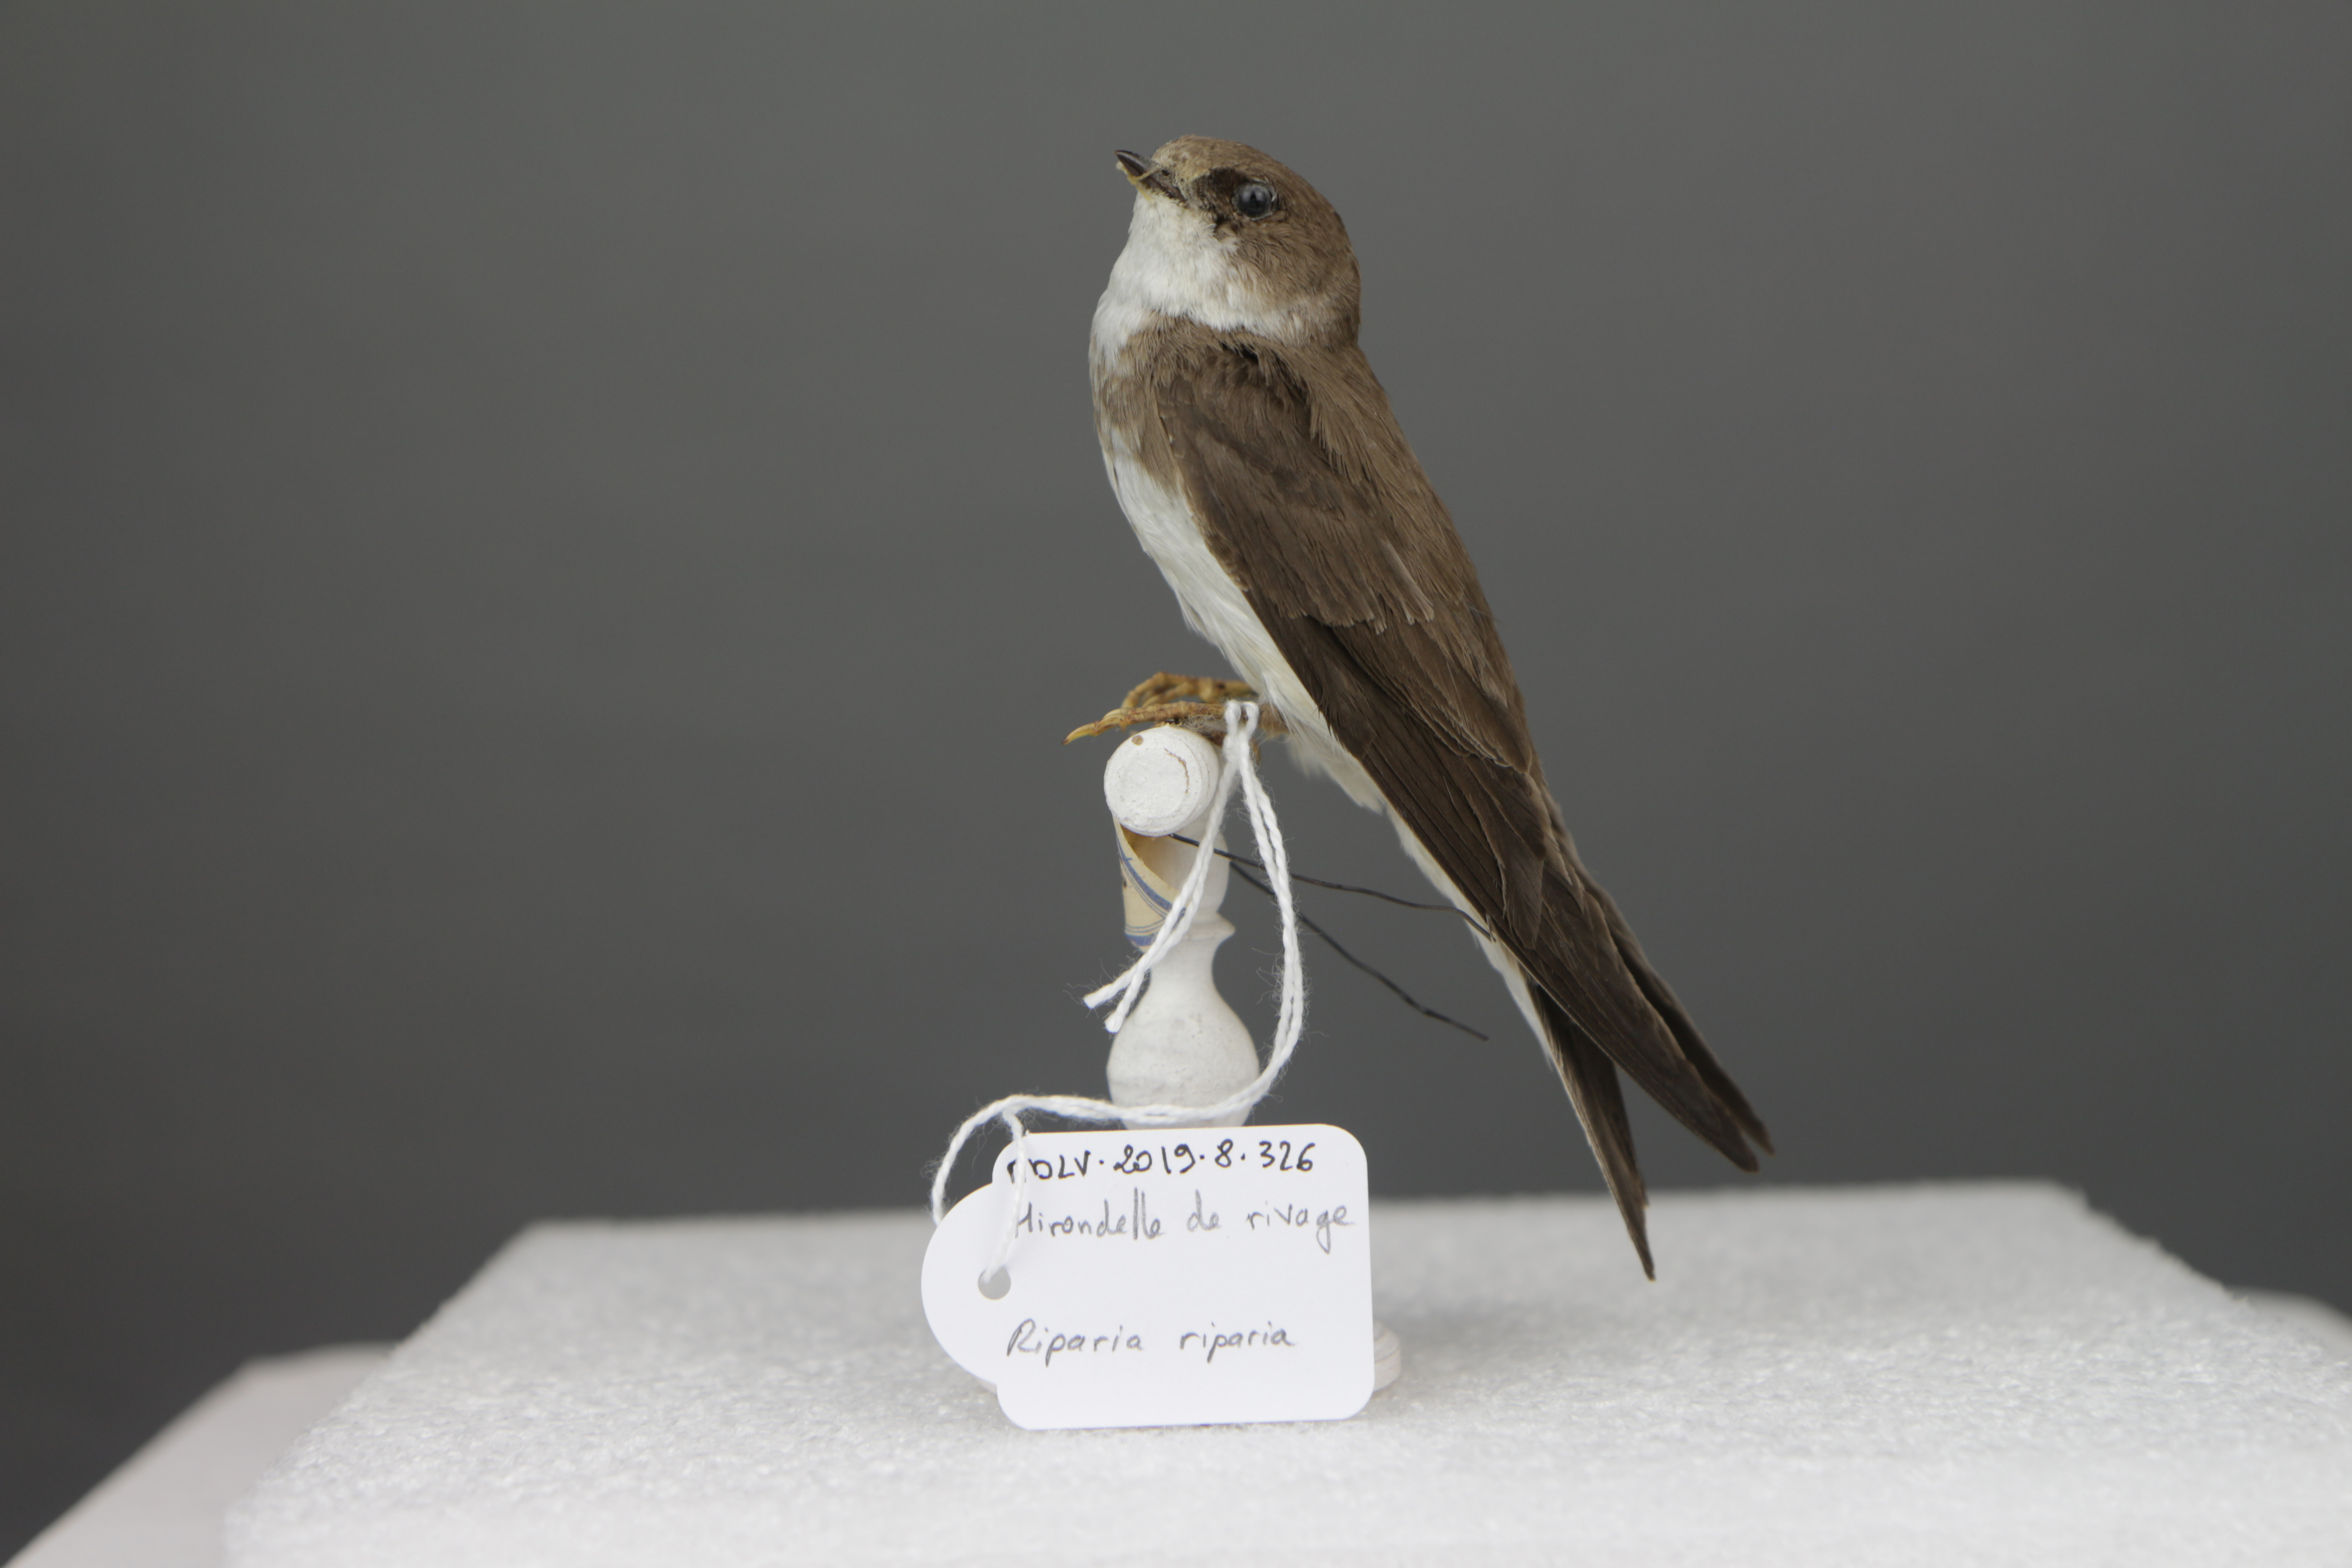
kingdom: Animalia
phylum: Chordata
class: Aves
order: Passeriformes
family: Hirundinidae
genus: Riparia
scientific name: Riparia riparia
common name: Sand martin
